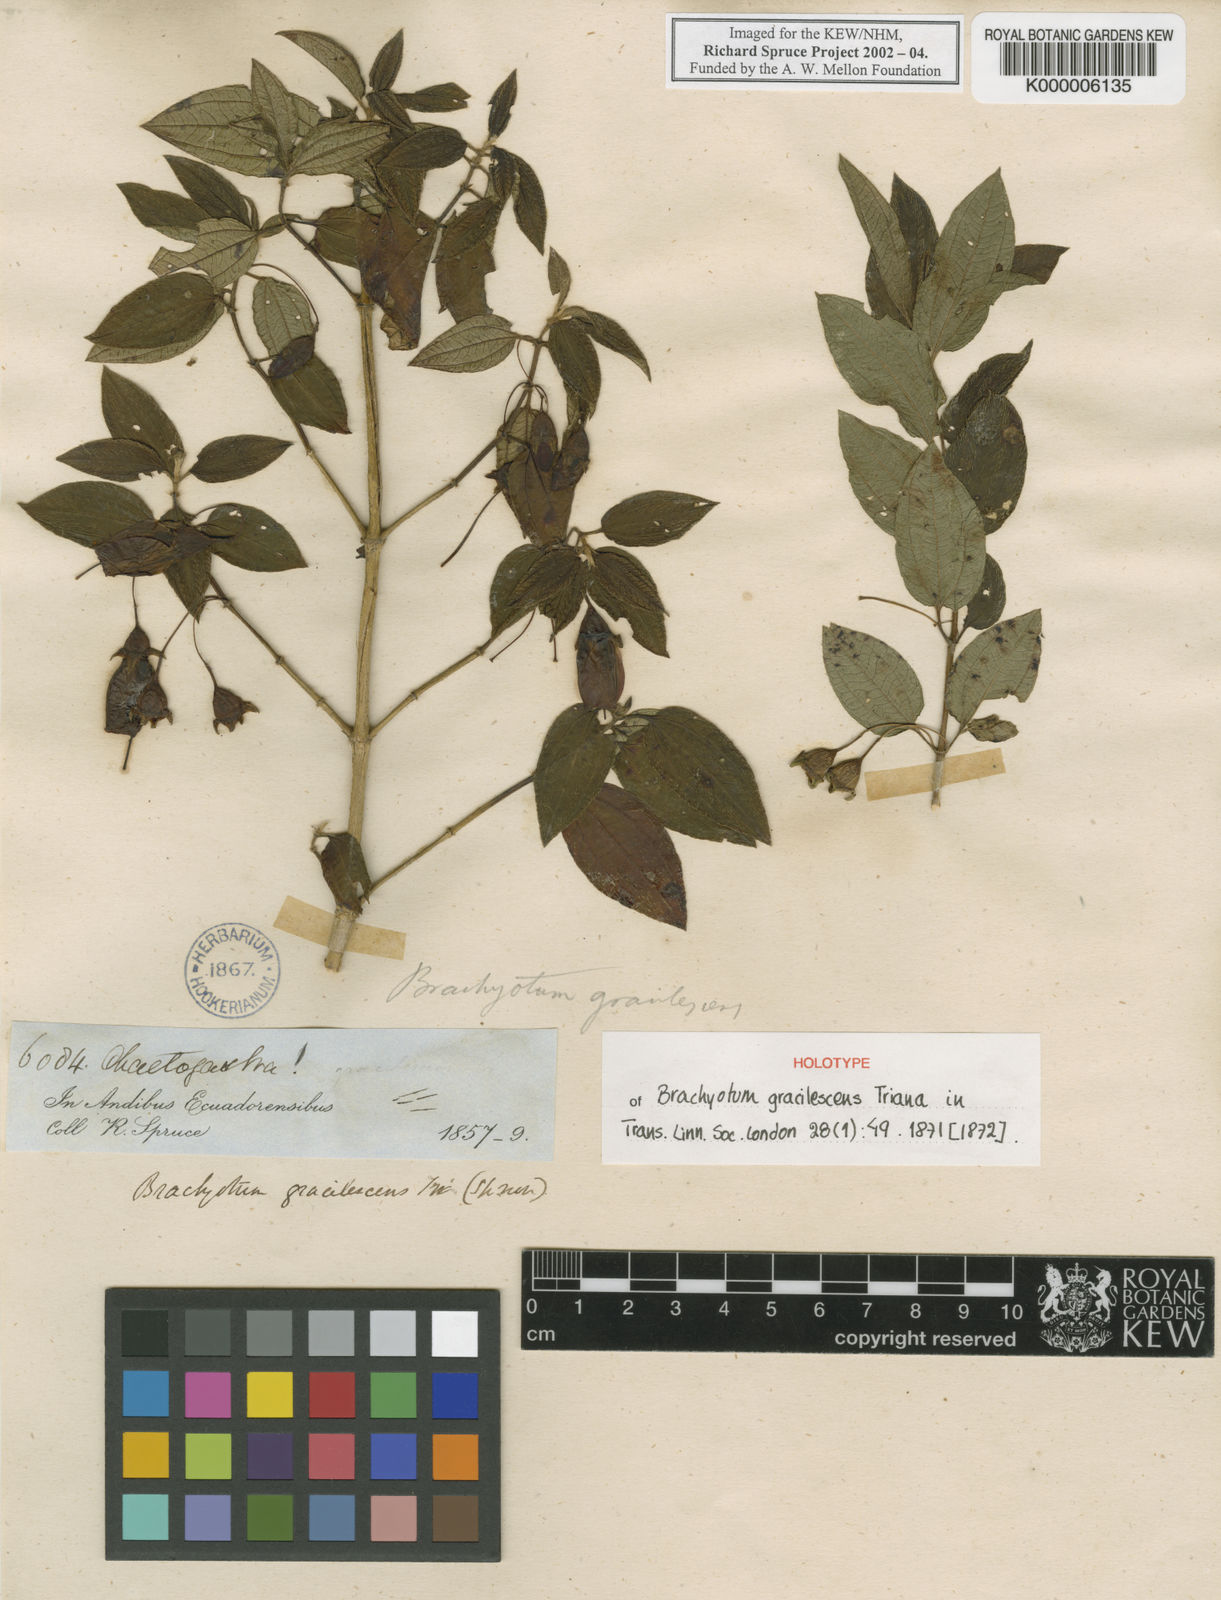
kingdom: Plantae
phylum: Tracheophyta
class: Magnoliopsida
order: Myrtales
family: Melastomataceae
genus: Brachyotum
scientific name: Brachyotum gracilescens
